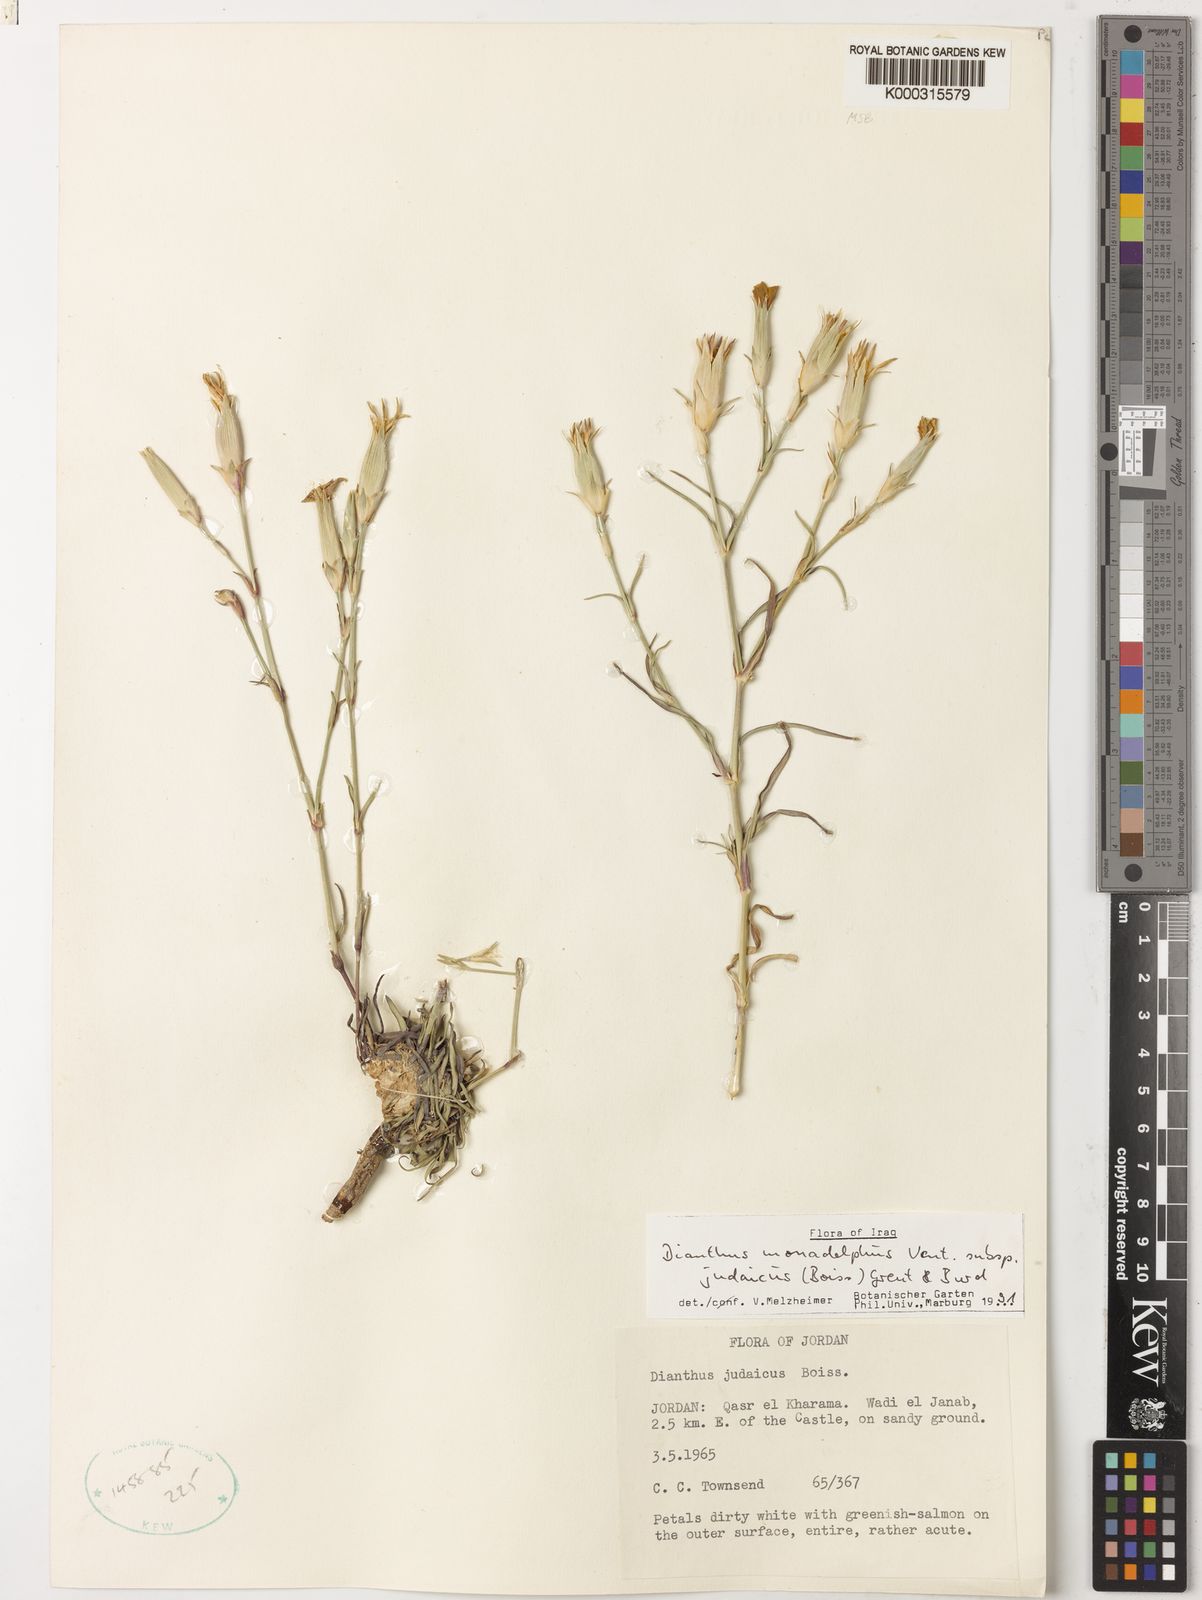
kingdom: Plantae
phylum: Tracheophyta
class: Magnoliopsida
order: Caryophyllales
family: Caryophyllaceae
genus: Dianthus
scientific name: Dianthus monadelphus
